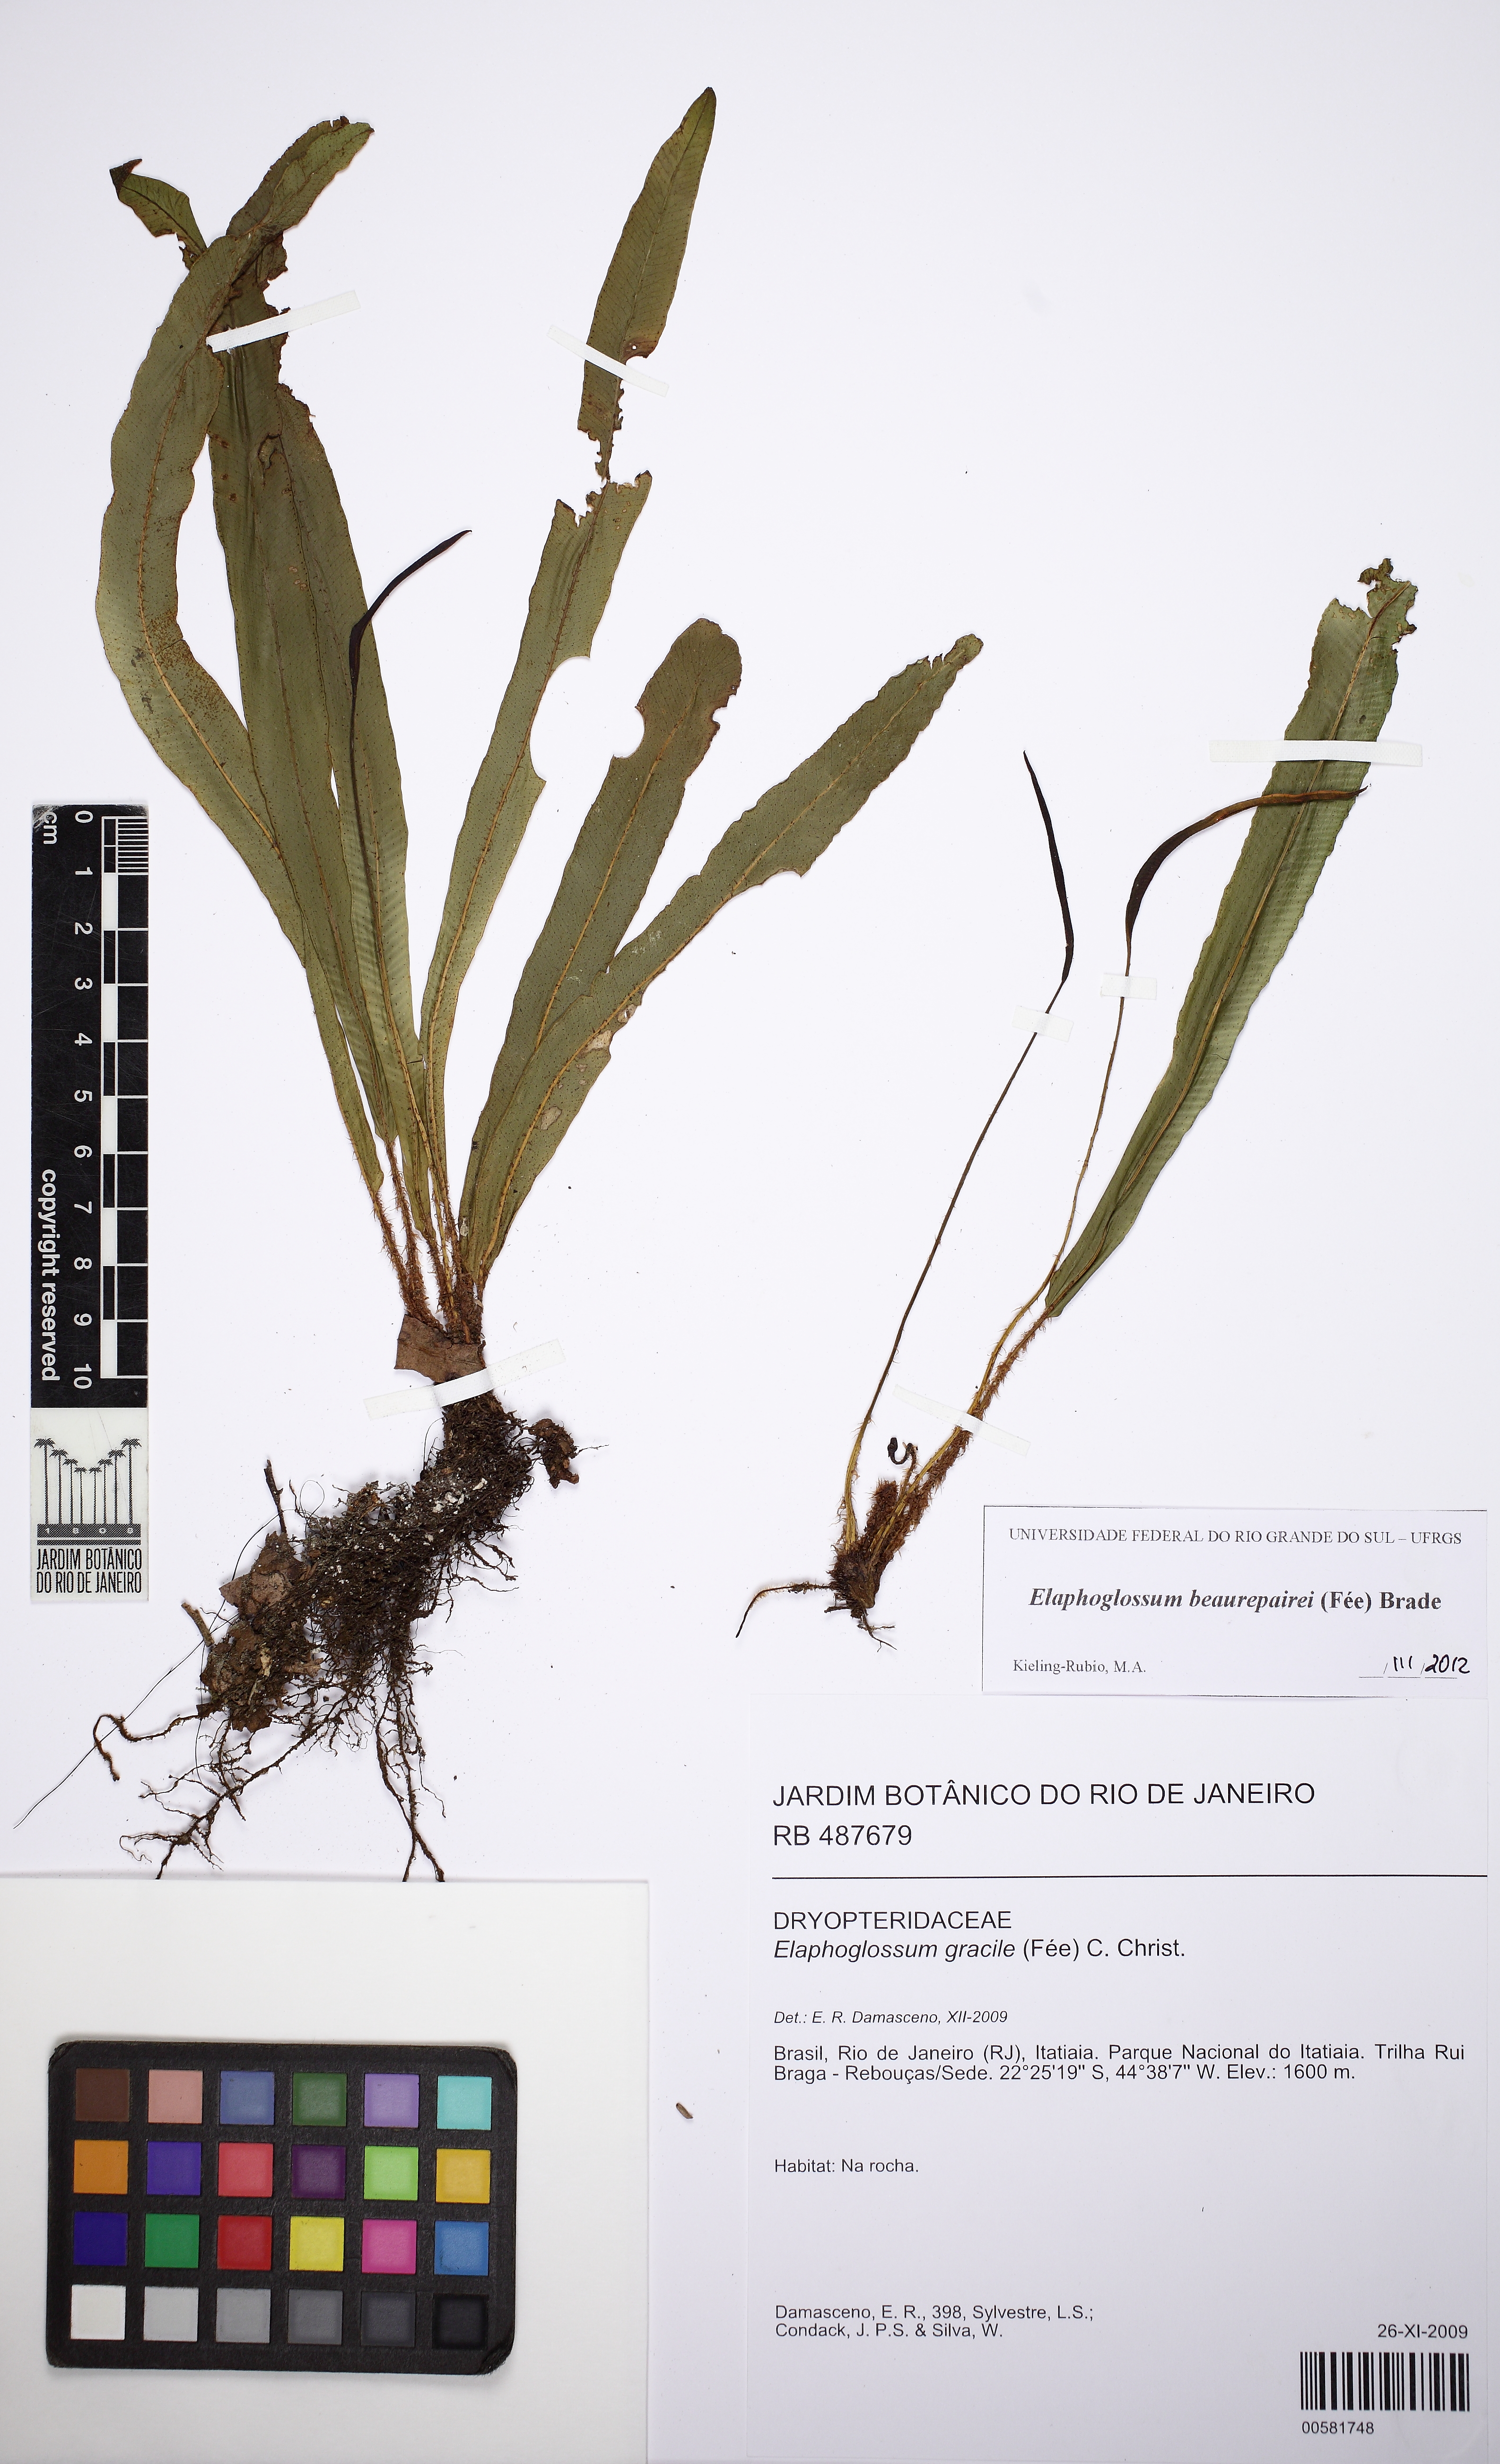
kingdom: Plantae
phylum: Tracheophyta
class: Polypodiopsida
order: Polypodiales
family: Dryopteridaceae
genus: Elaphoglossum
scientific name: Elaphoglossum beaurepairei
